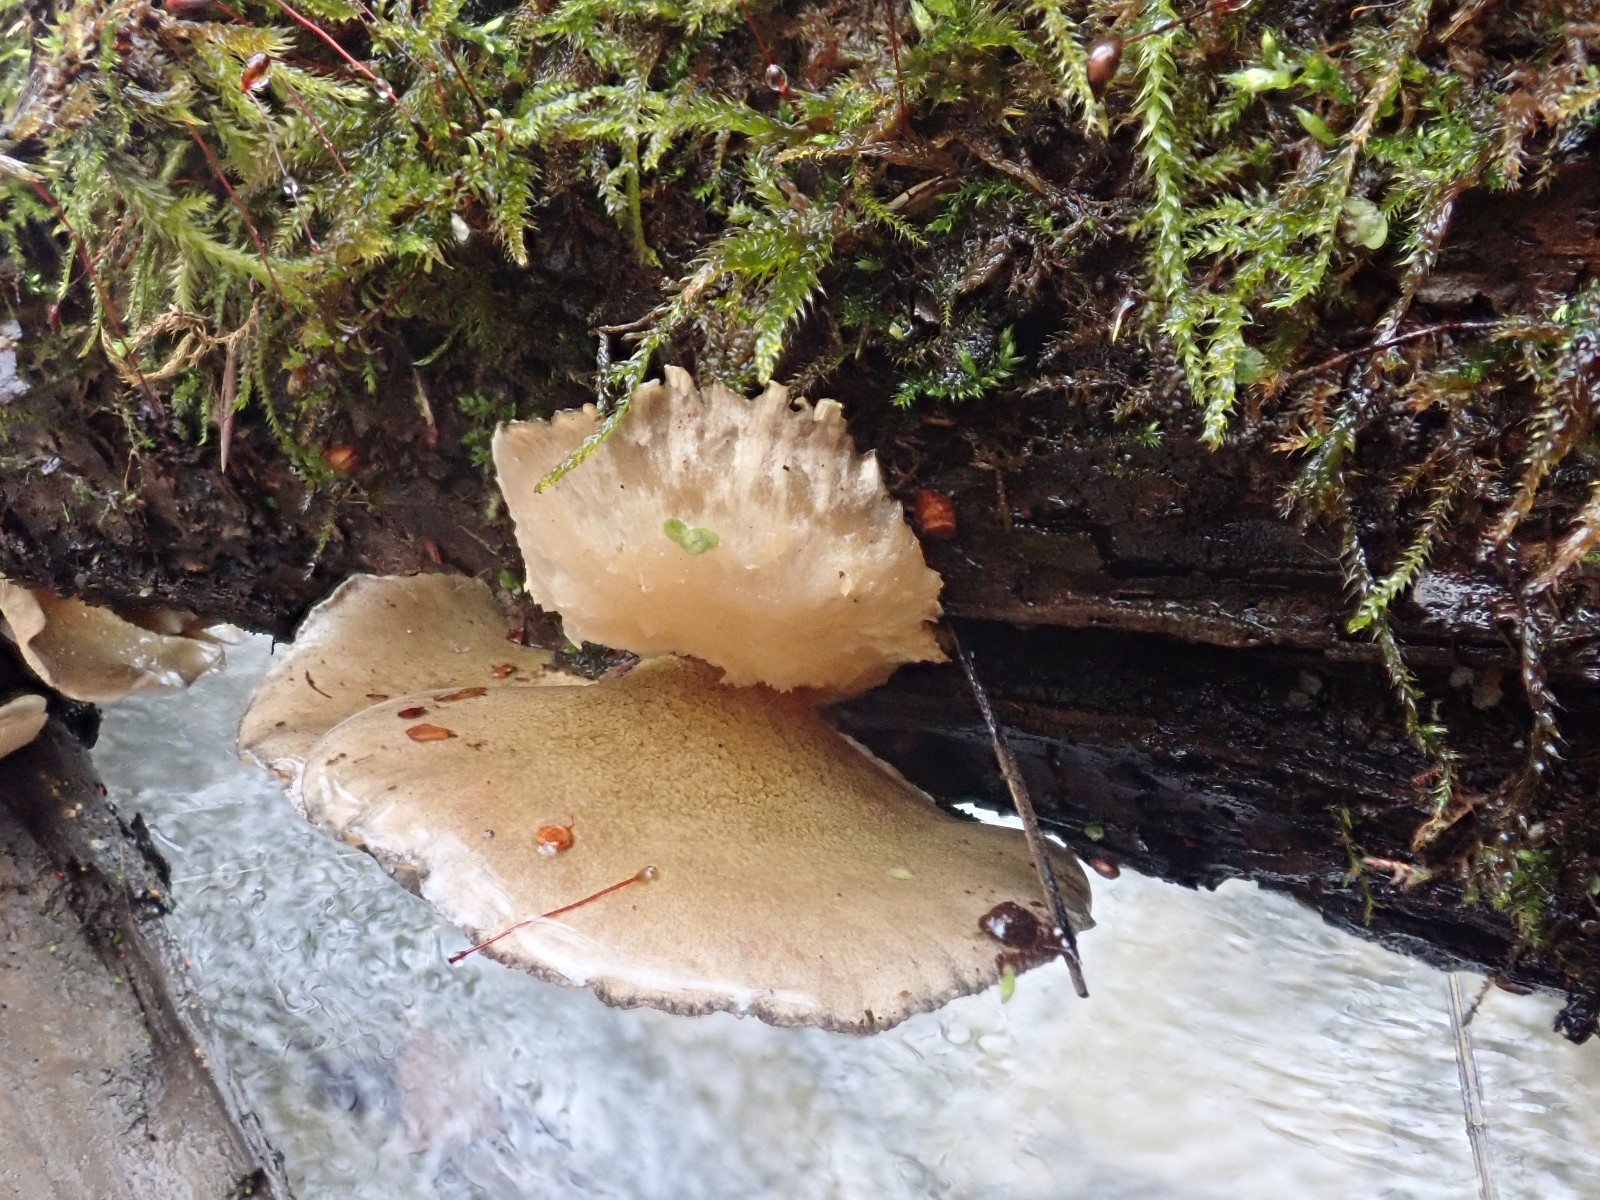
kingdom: Fungi
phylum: Basidiomycota
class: Agaricomycetes
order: Agaricales
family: Sarcomyxaceae
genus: Sarcomyxa
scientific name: Sarcomyxa serotina
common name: gummihat
